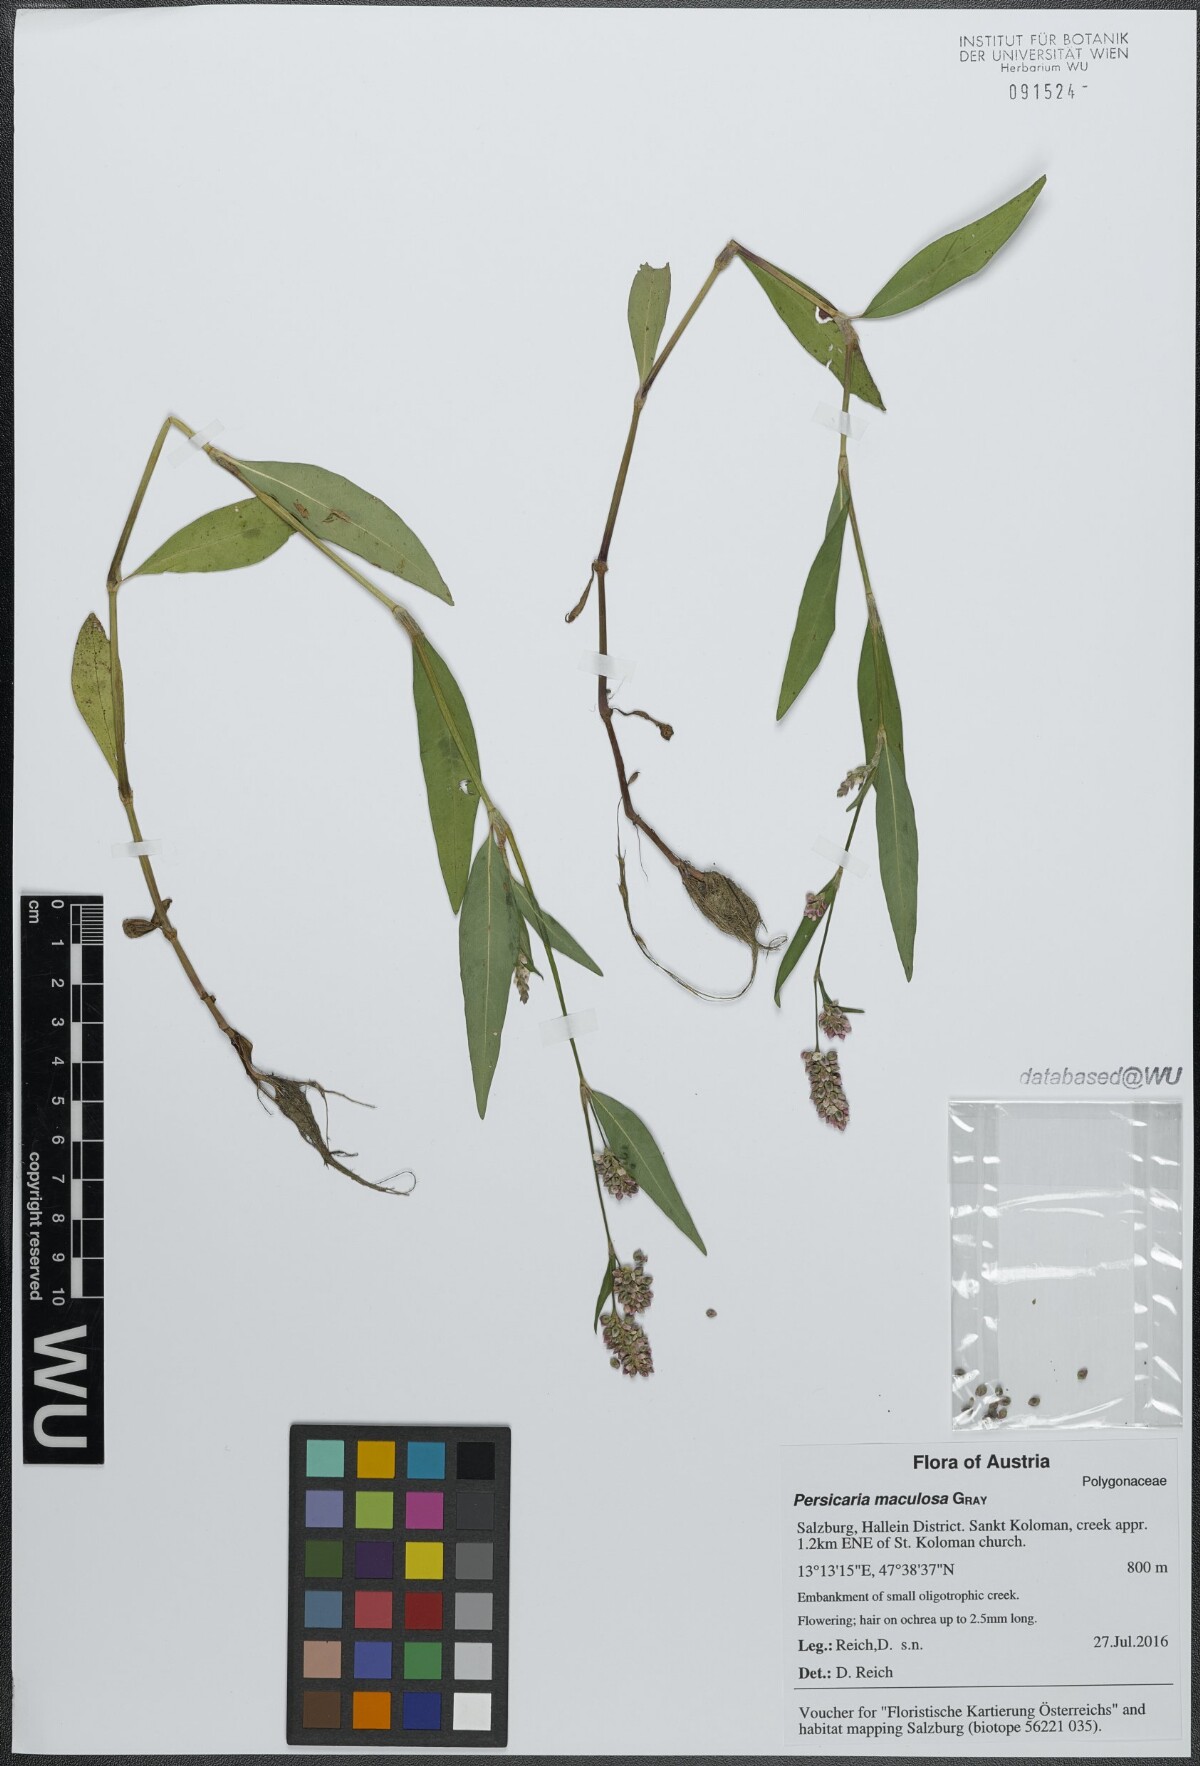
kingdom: Plantae
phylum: Tracheophyta
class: Magnoliopsida
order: Caryophyllales
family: Polygonaceae
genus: Persicaria
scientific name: Persicaria maculosa
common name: Redshank
